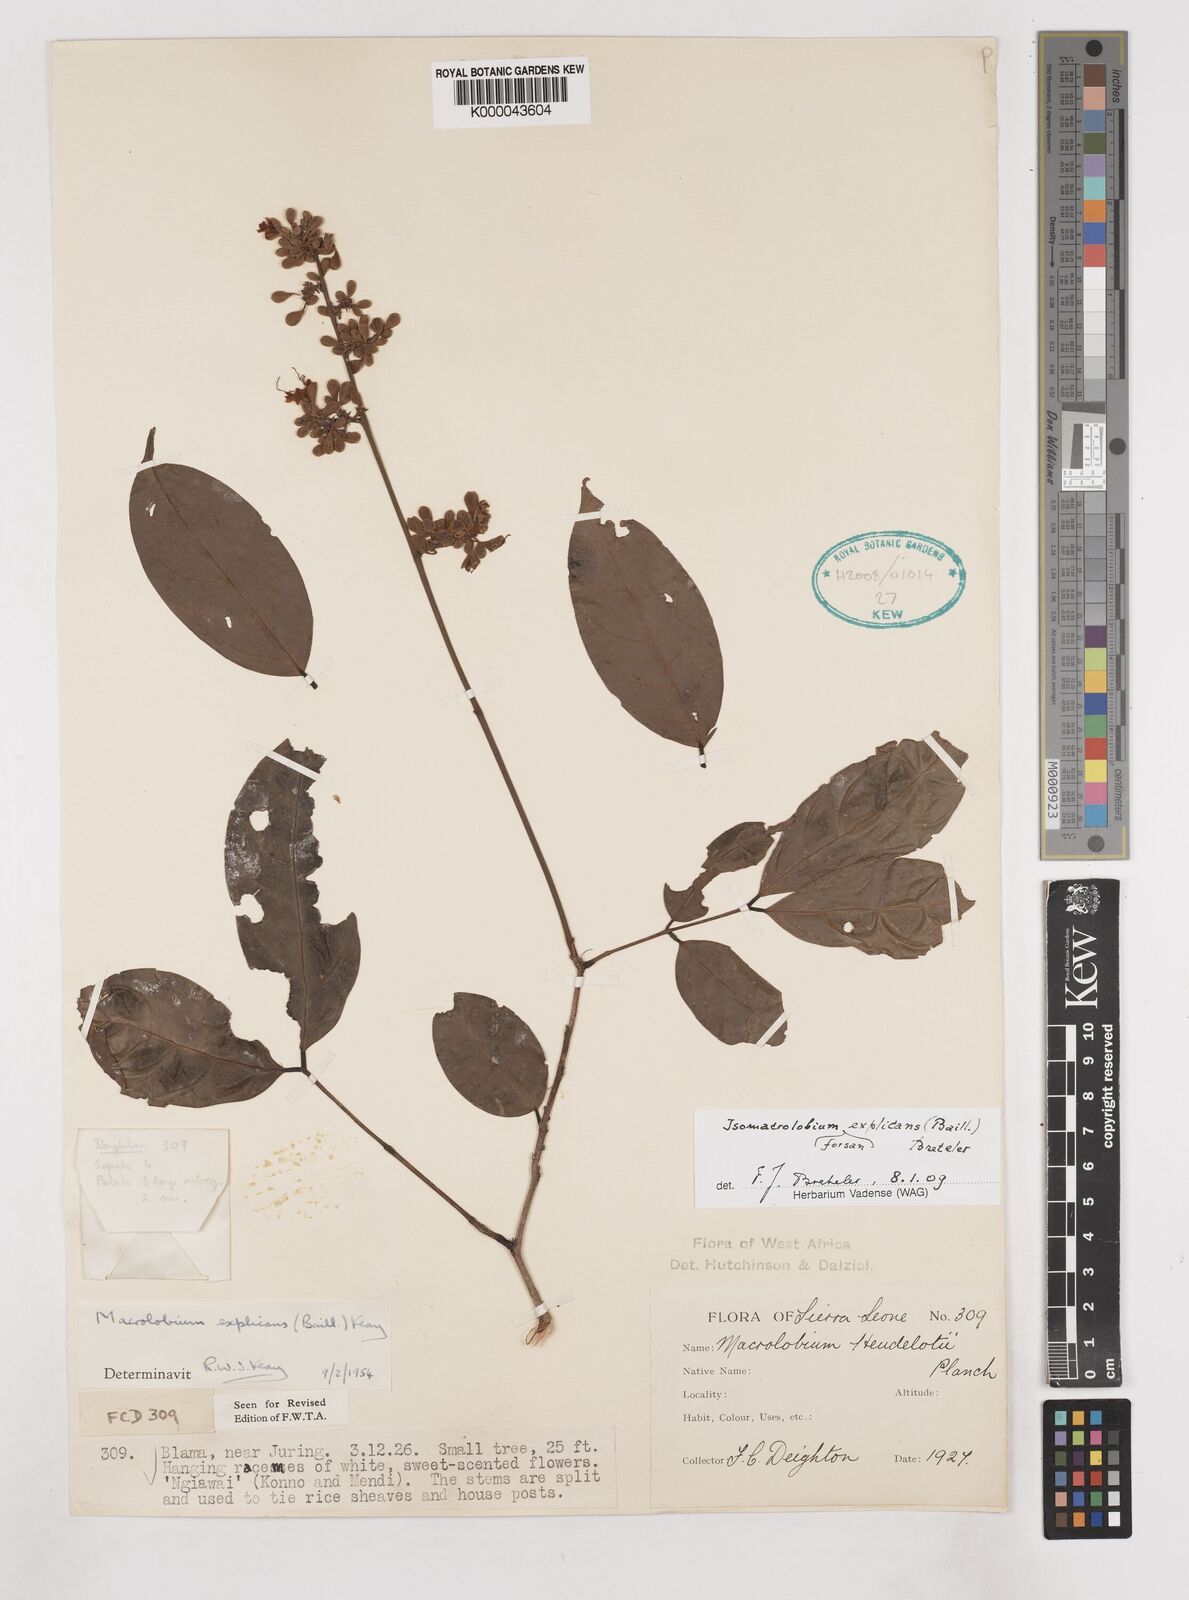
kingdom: Plantae
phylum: Tracheophyta
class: Magnoliopsida
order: Fabales
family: Fabaceae
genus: Anthonotha
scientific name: Anthonotha
